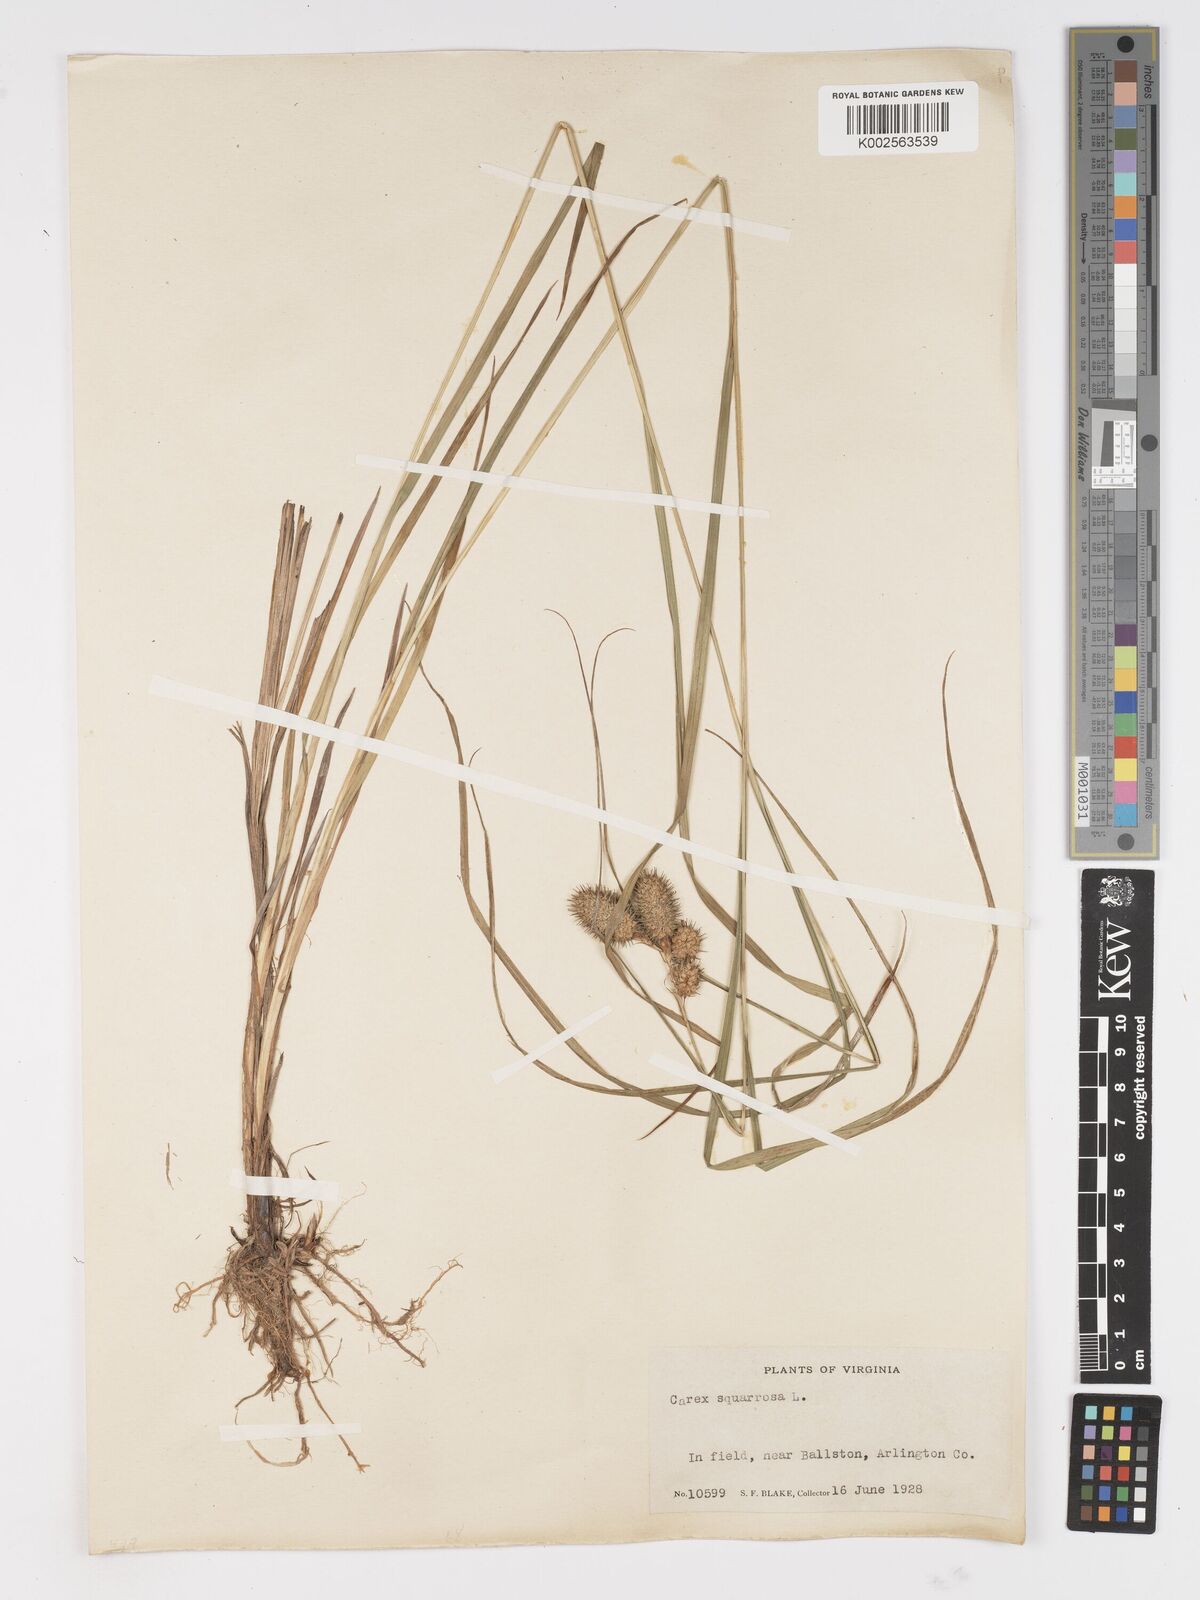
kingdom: Plantae
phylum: Tracheophyta
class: Liliopsida
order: Poales
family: Cyperaceae
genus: Carex
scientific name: Carex squarrosa
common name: Narrow-leaved cattail sedge
